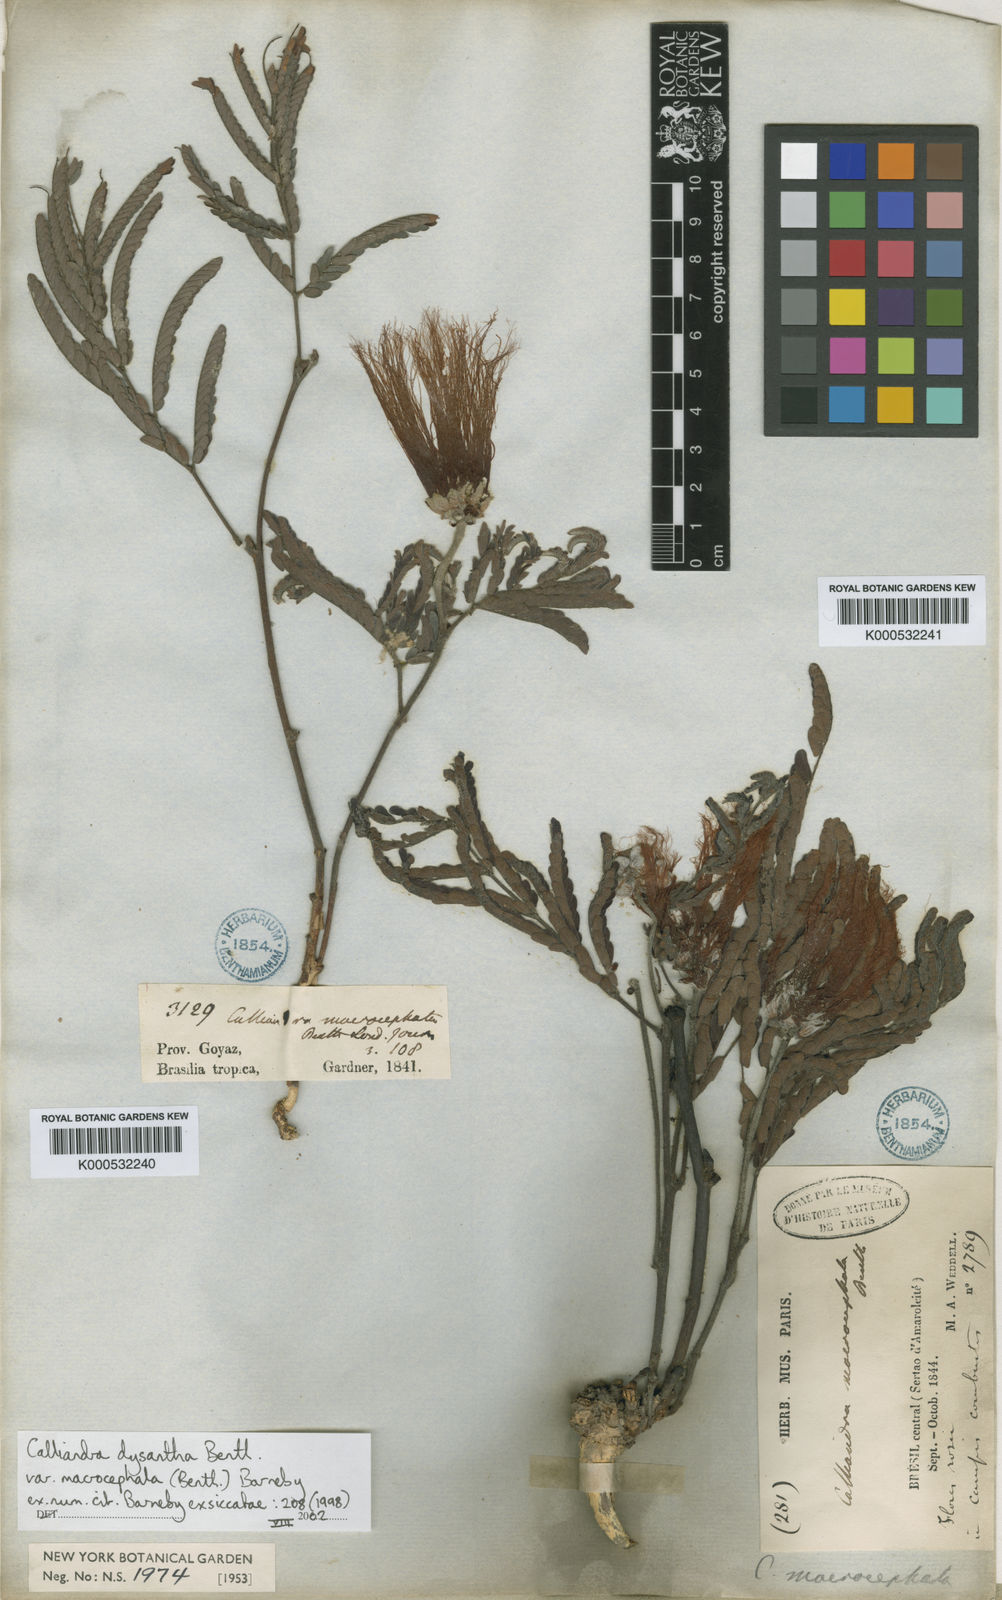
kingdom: Plantae
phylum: Tracheophyta
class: Magnoliopsida
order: Fabales
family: Fabaceae
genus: Calliandra
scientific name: Calliandra dysantha
